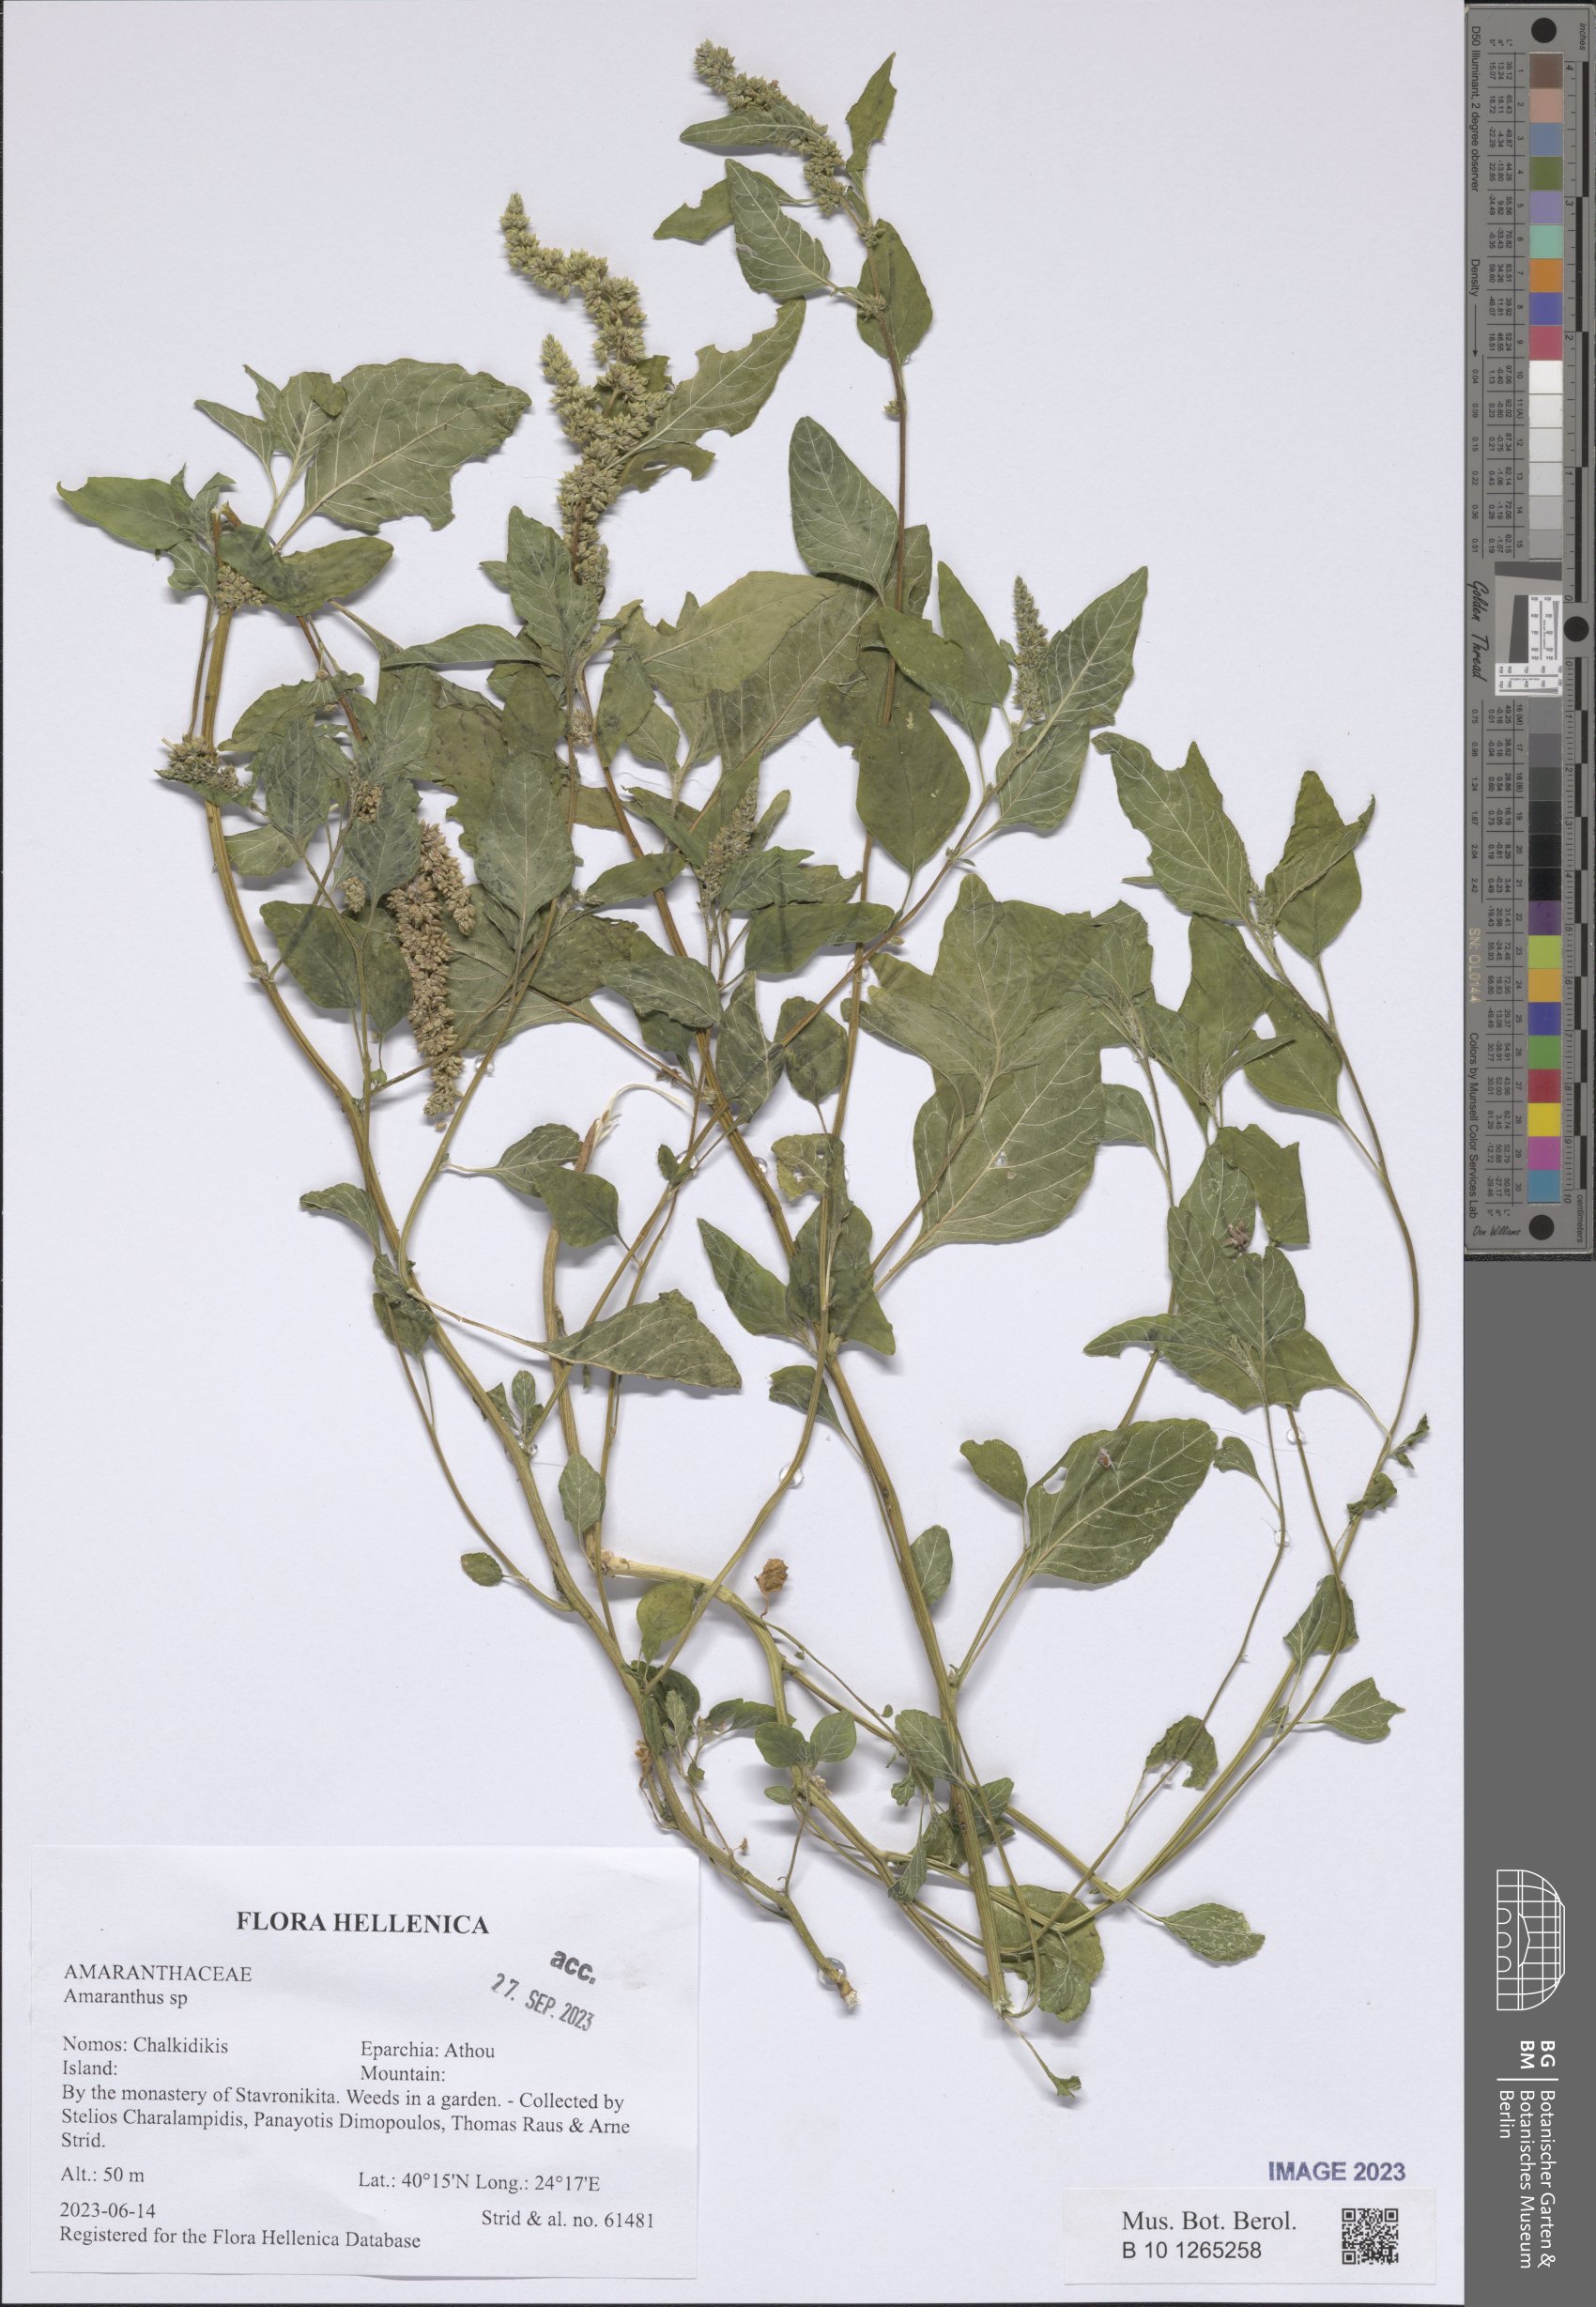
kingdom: Plantae
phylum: Tracheophyta
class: Magnoliopsida
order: Caryophyllales
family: Amaranthaceae
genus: Amaranthus
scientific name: Amaranthus
